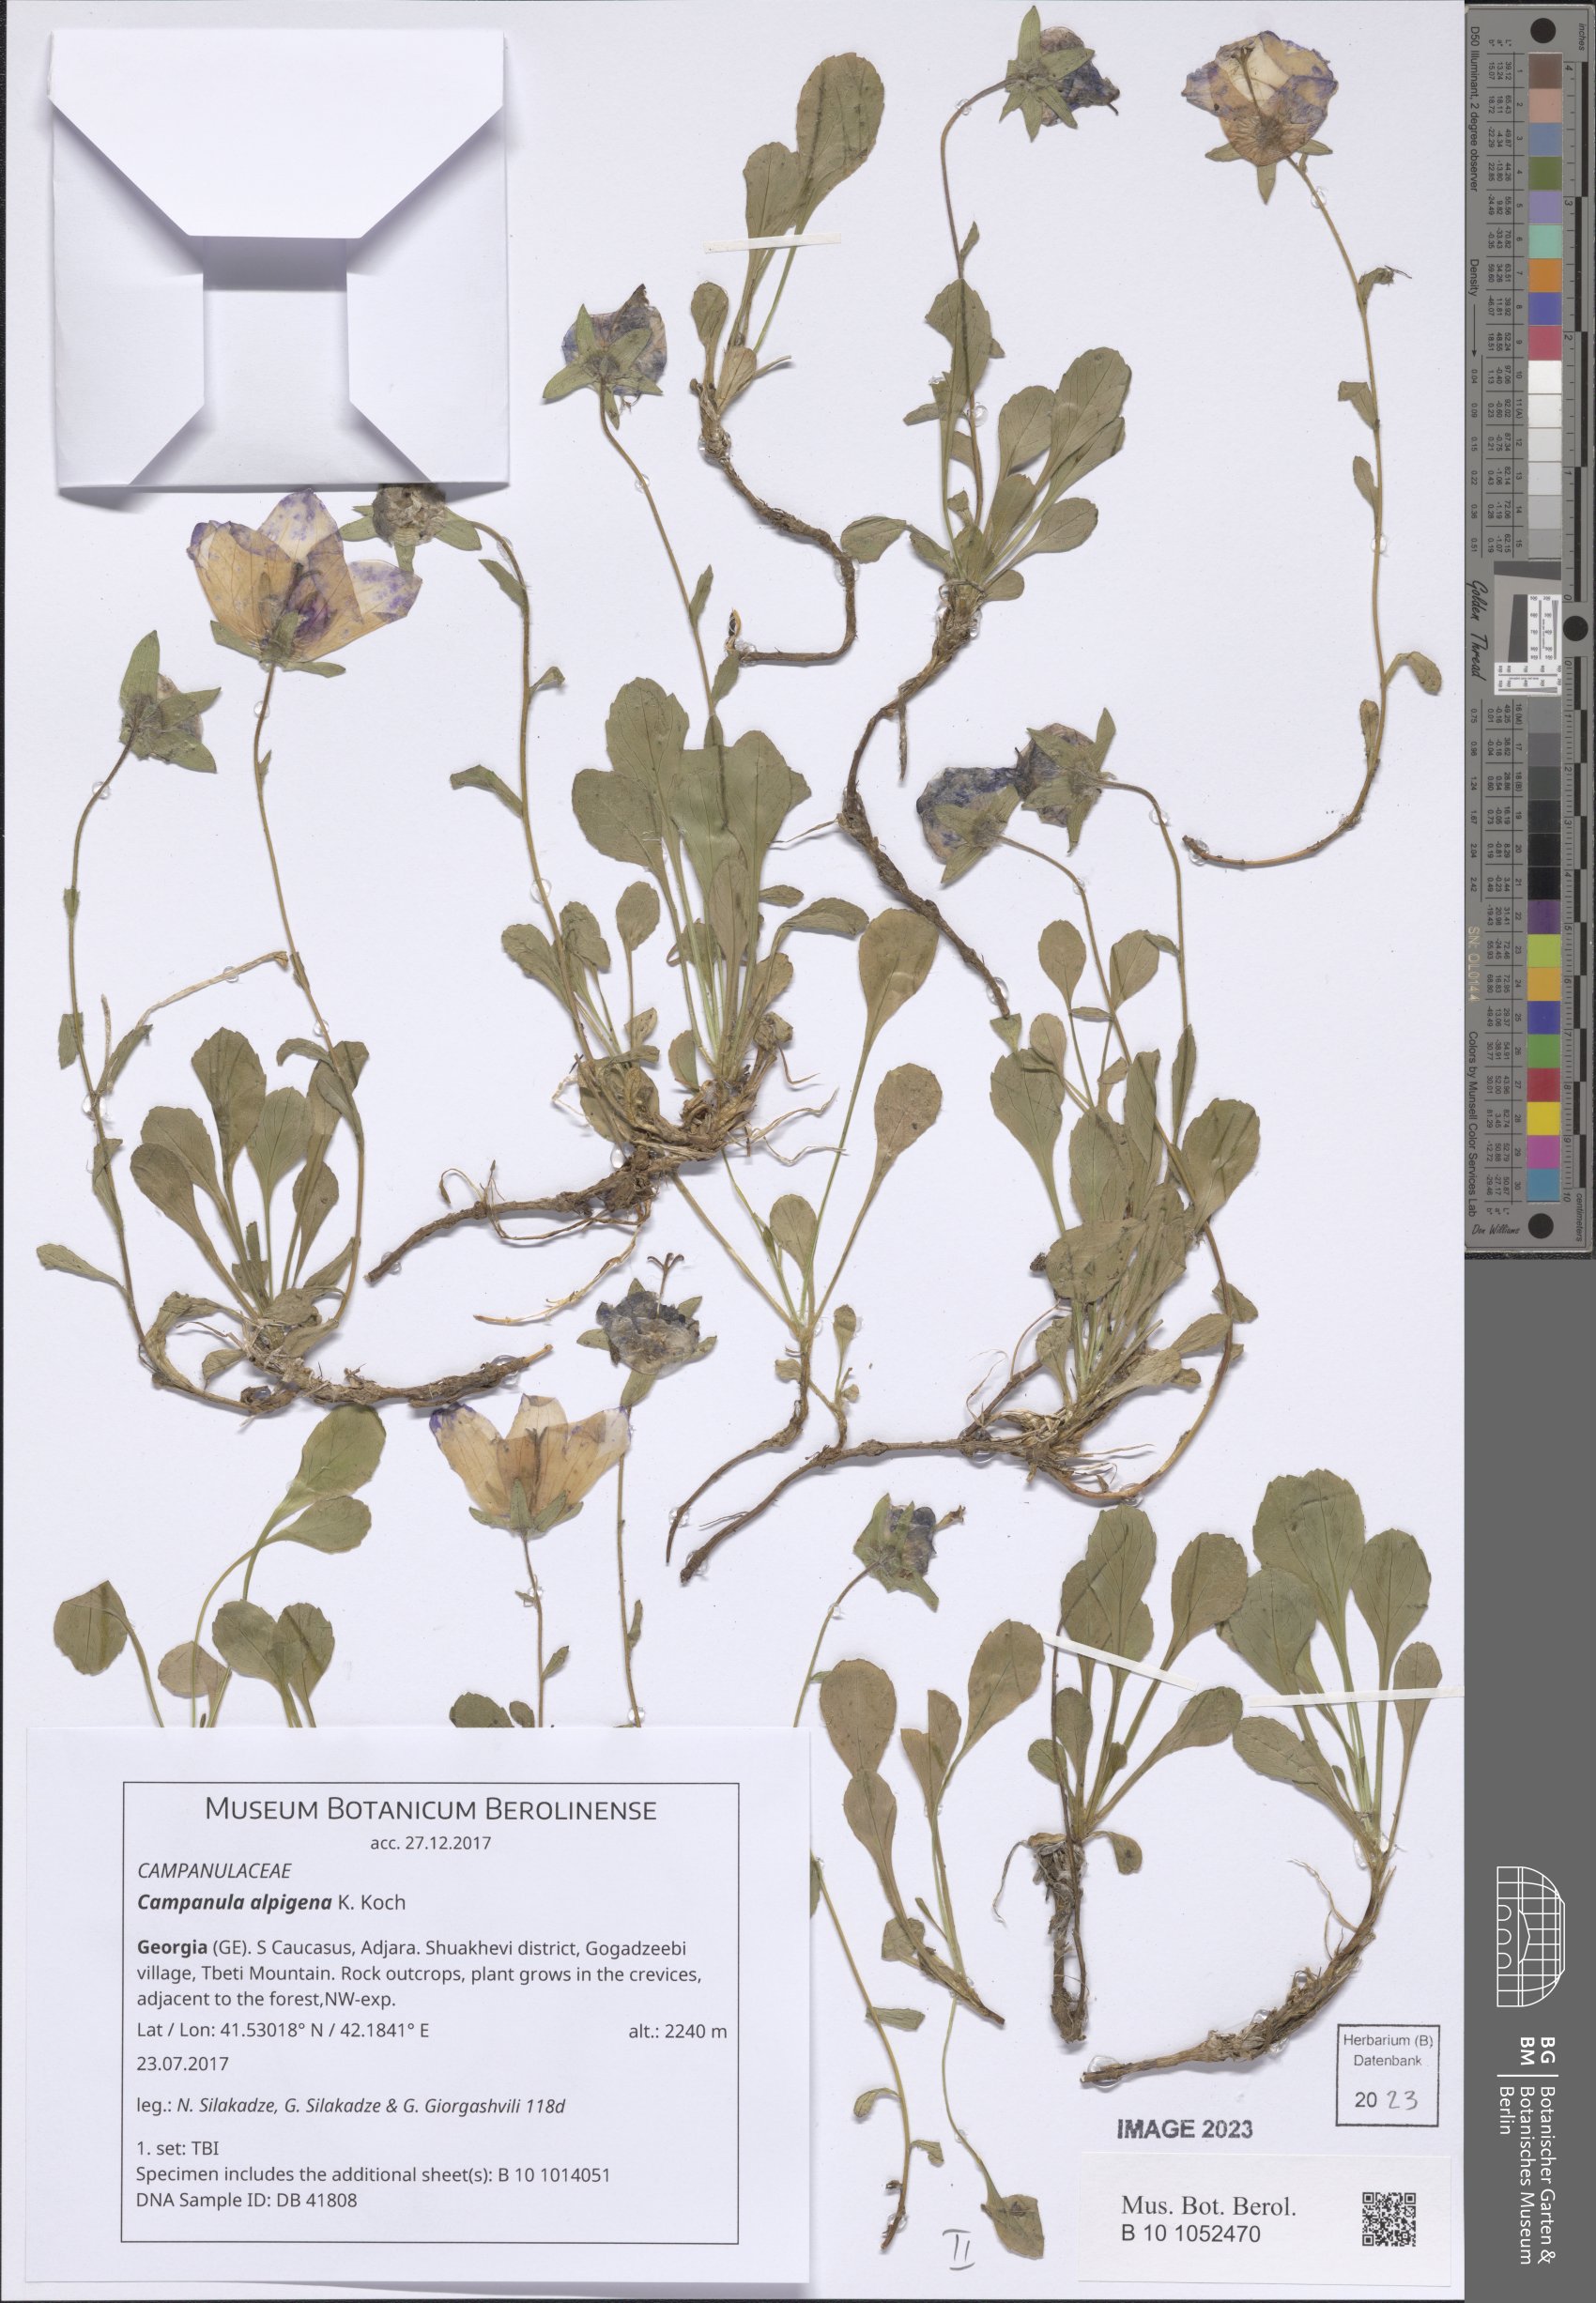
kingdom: Plantae
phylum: Tracheophyta
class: Magnoliopsida
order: Asterales
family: Campanulaceae
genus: Campanula
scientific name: Campanula saxifraga
